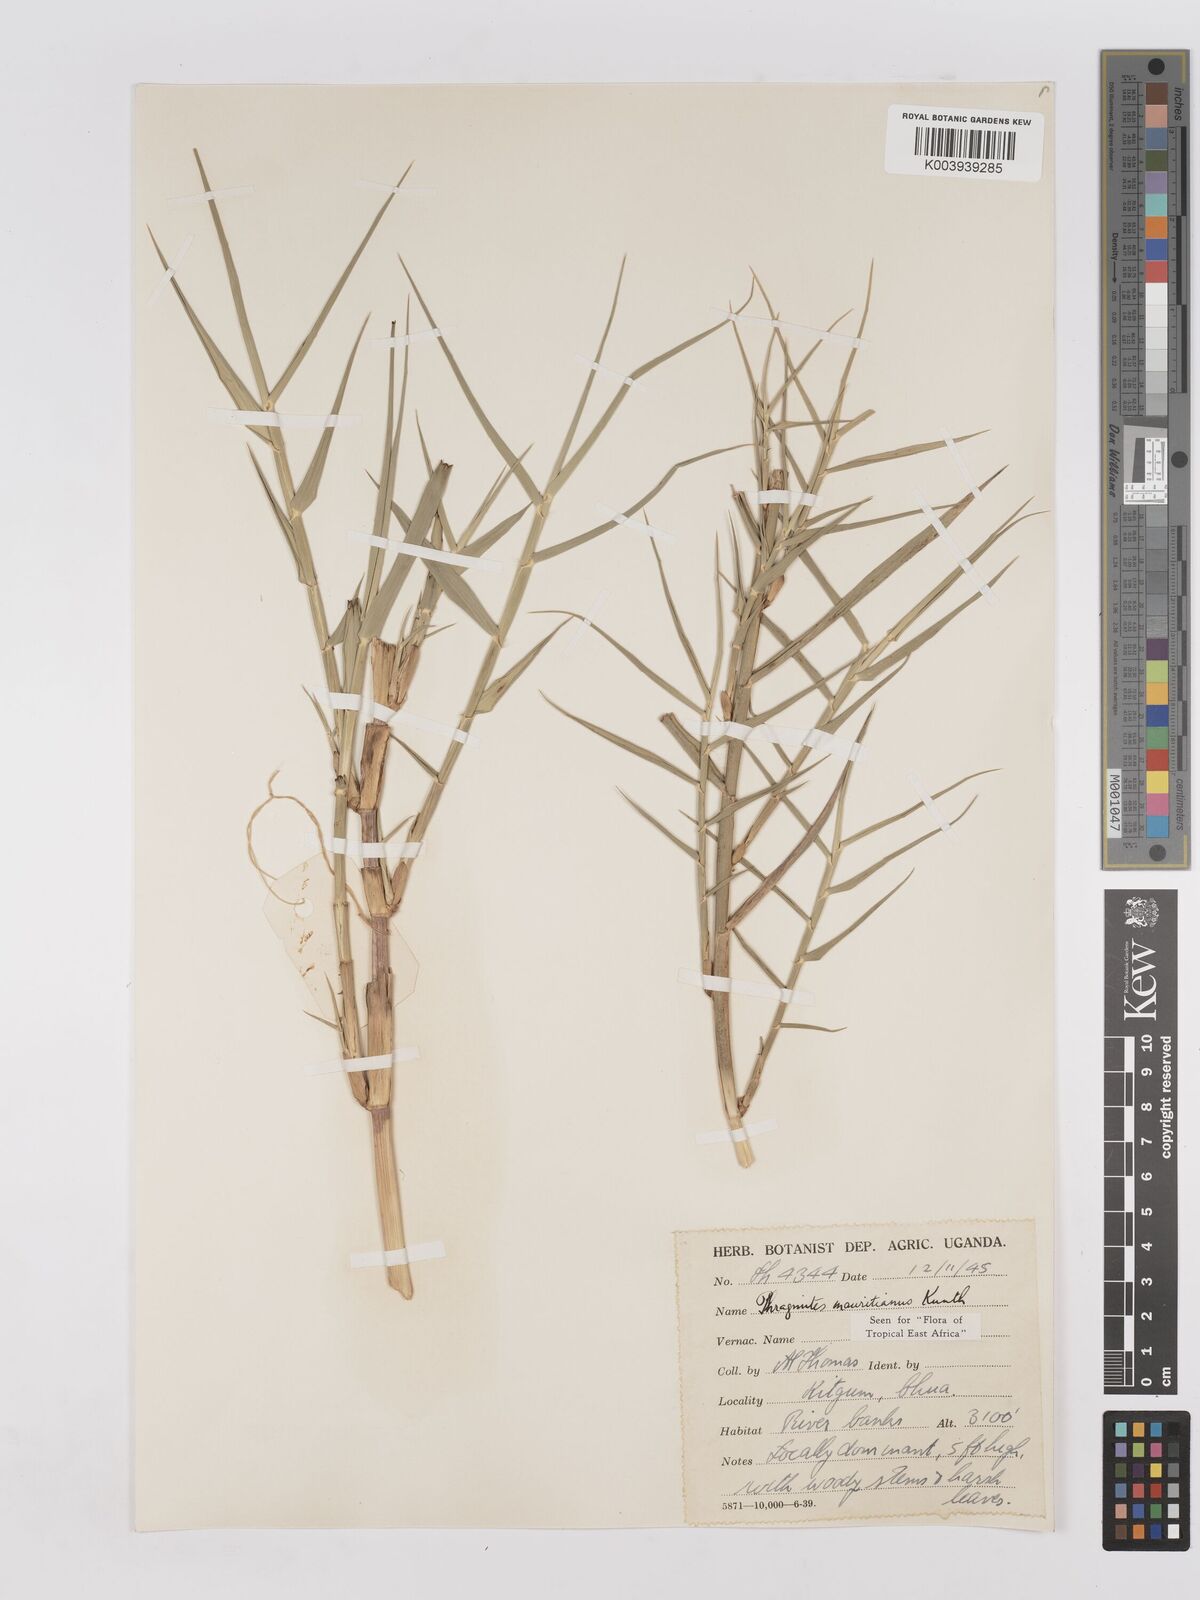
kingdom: Plantae
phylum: Tracheophyta
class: Liliopsida
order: Poales
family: Poaceae
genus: Phragmites
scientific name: Phragmites mauritianus
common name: Reed grass
